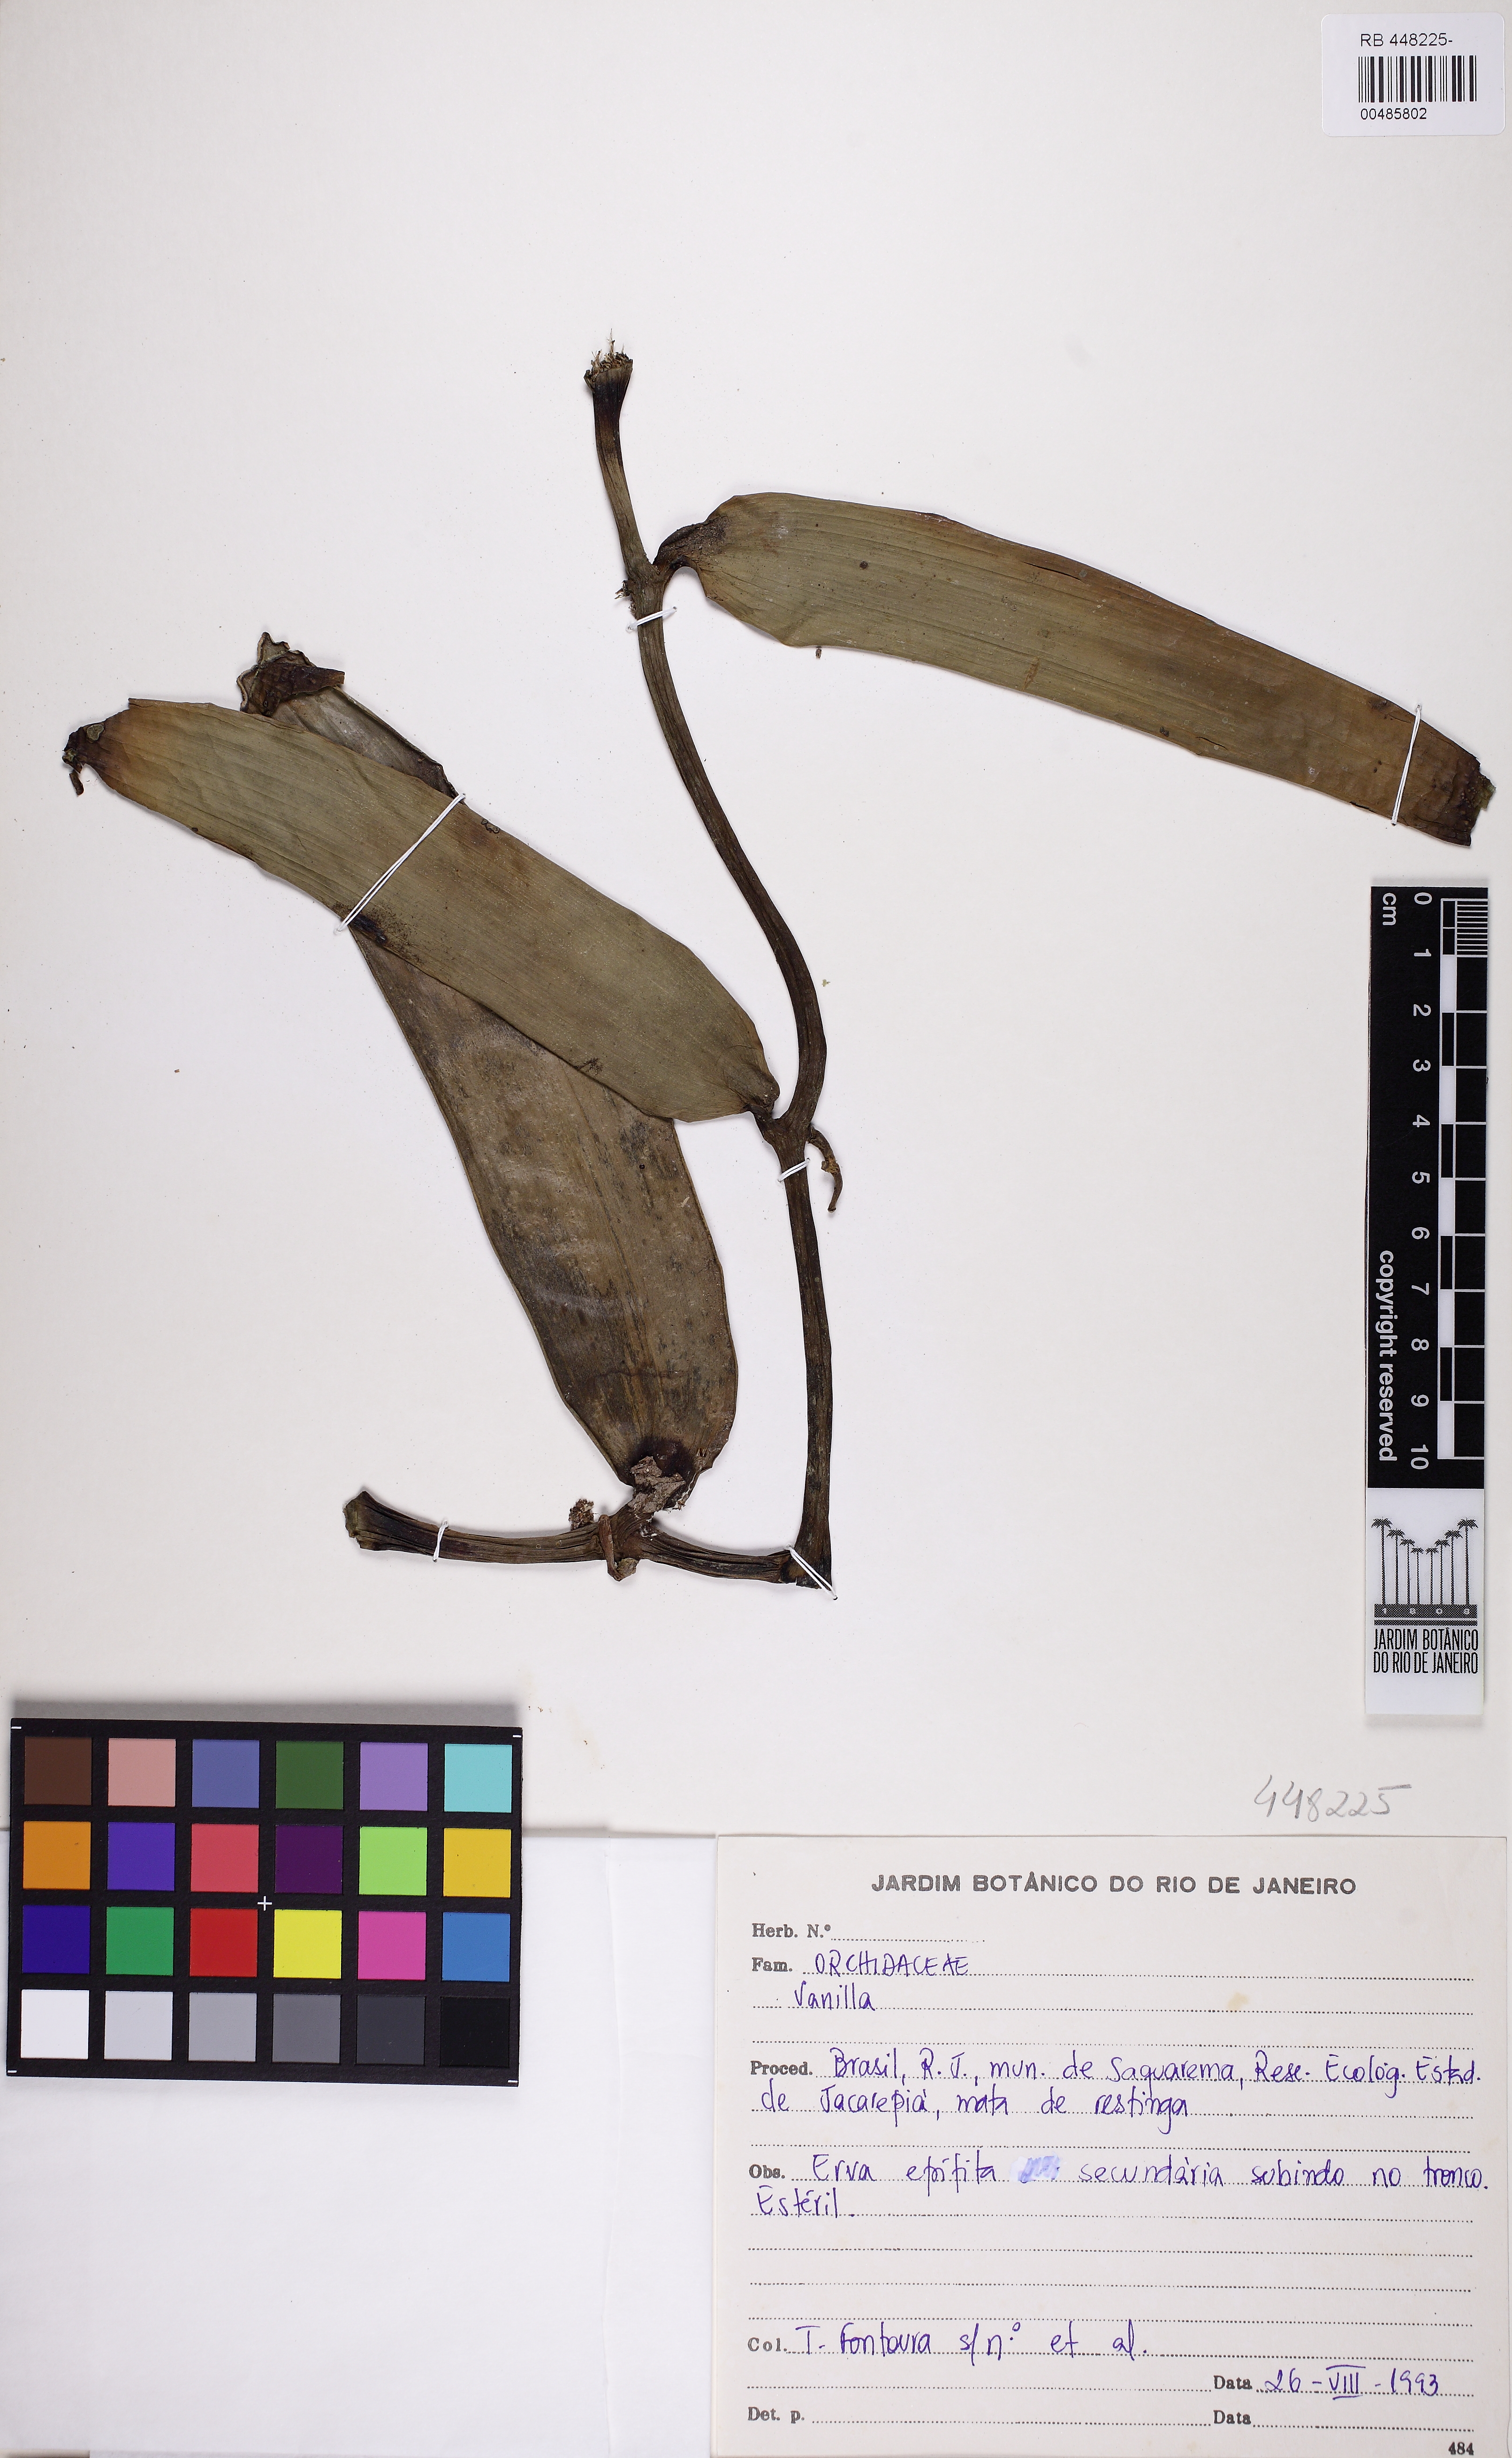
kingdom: Plantae
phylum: Tracheophyta
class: Liliopsida
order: Asparagales
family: Orchidaceae
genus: Vanilla
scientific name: Vanilla phaeantha
